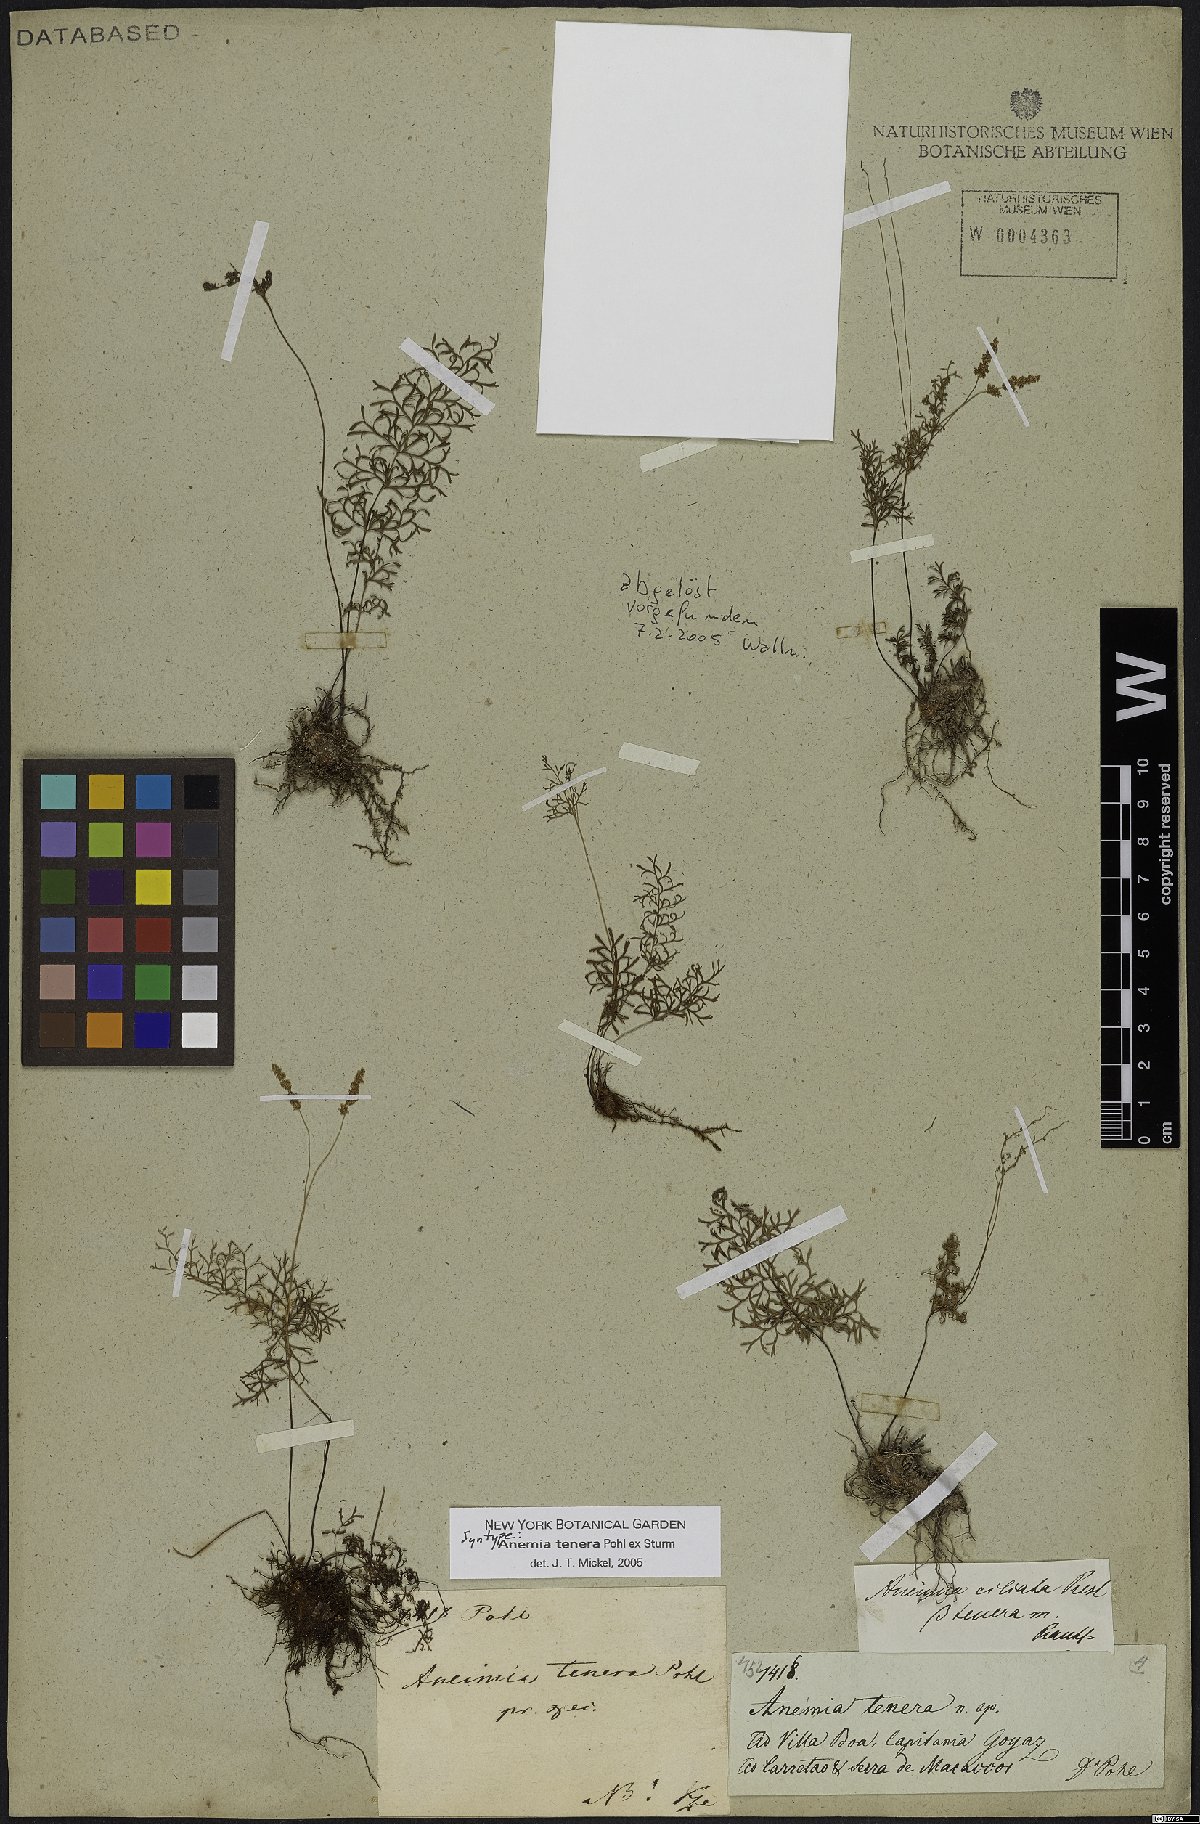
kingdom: Plantae
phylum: Tracheophyta
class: Polypodiopsida
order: Schizaeales
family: Anemiaceae
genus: Anemia
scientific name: Anemia tenera
